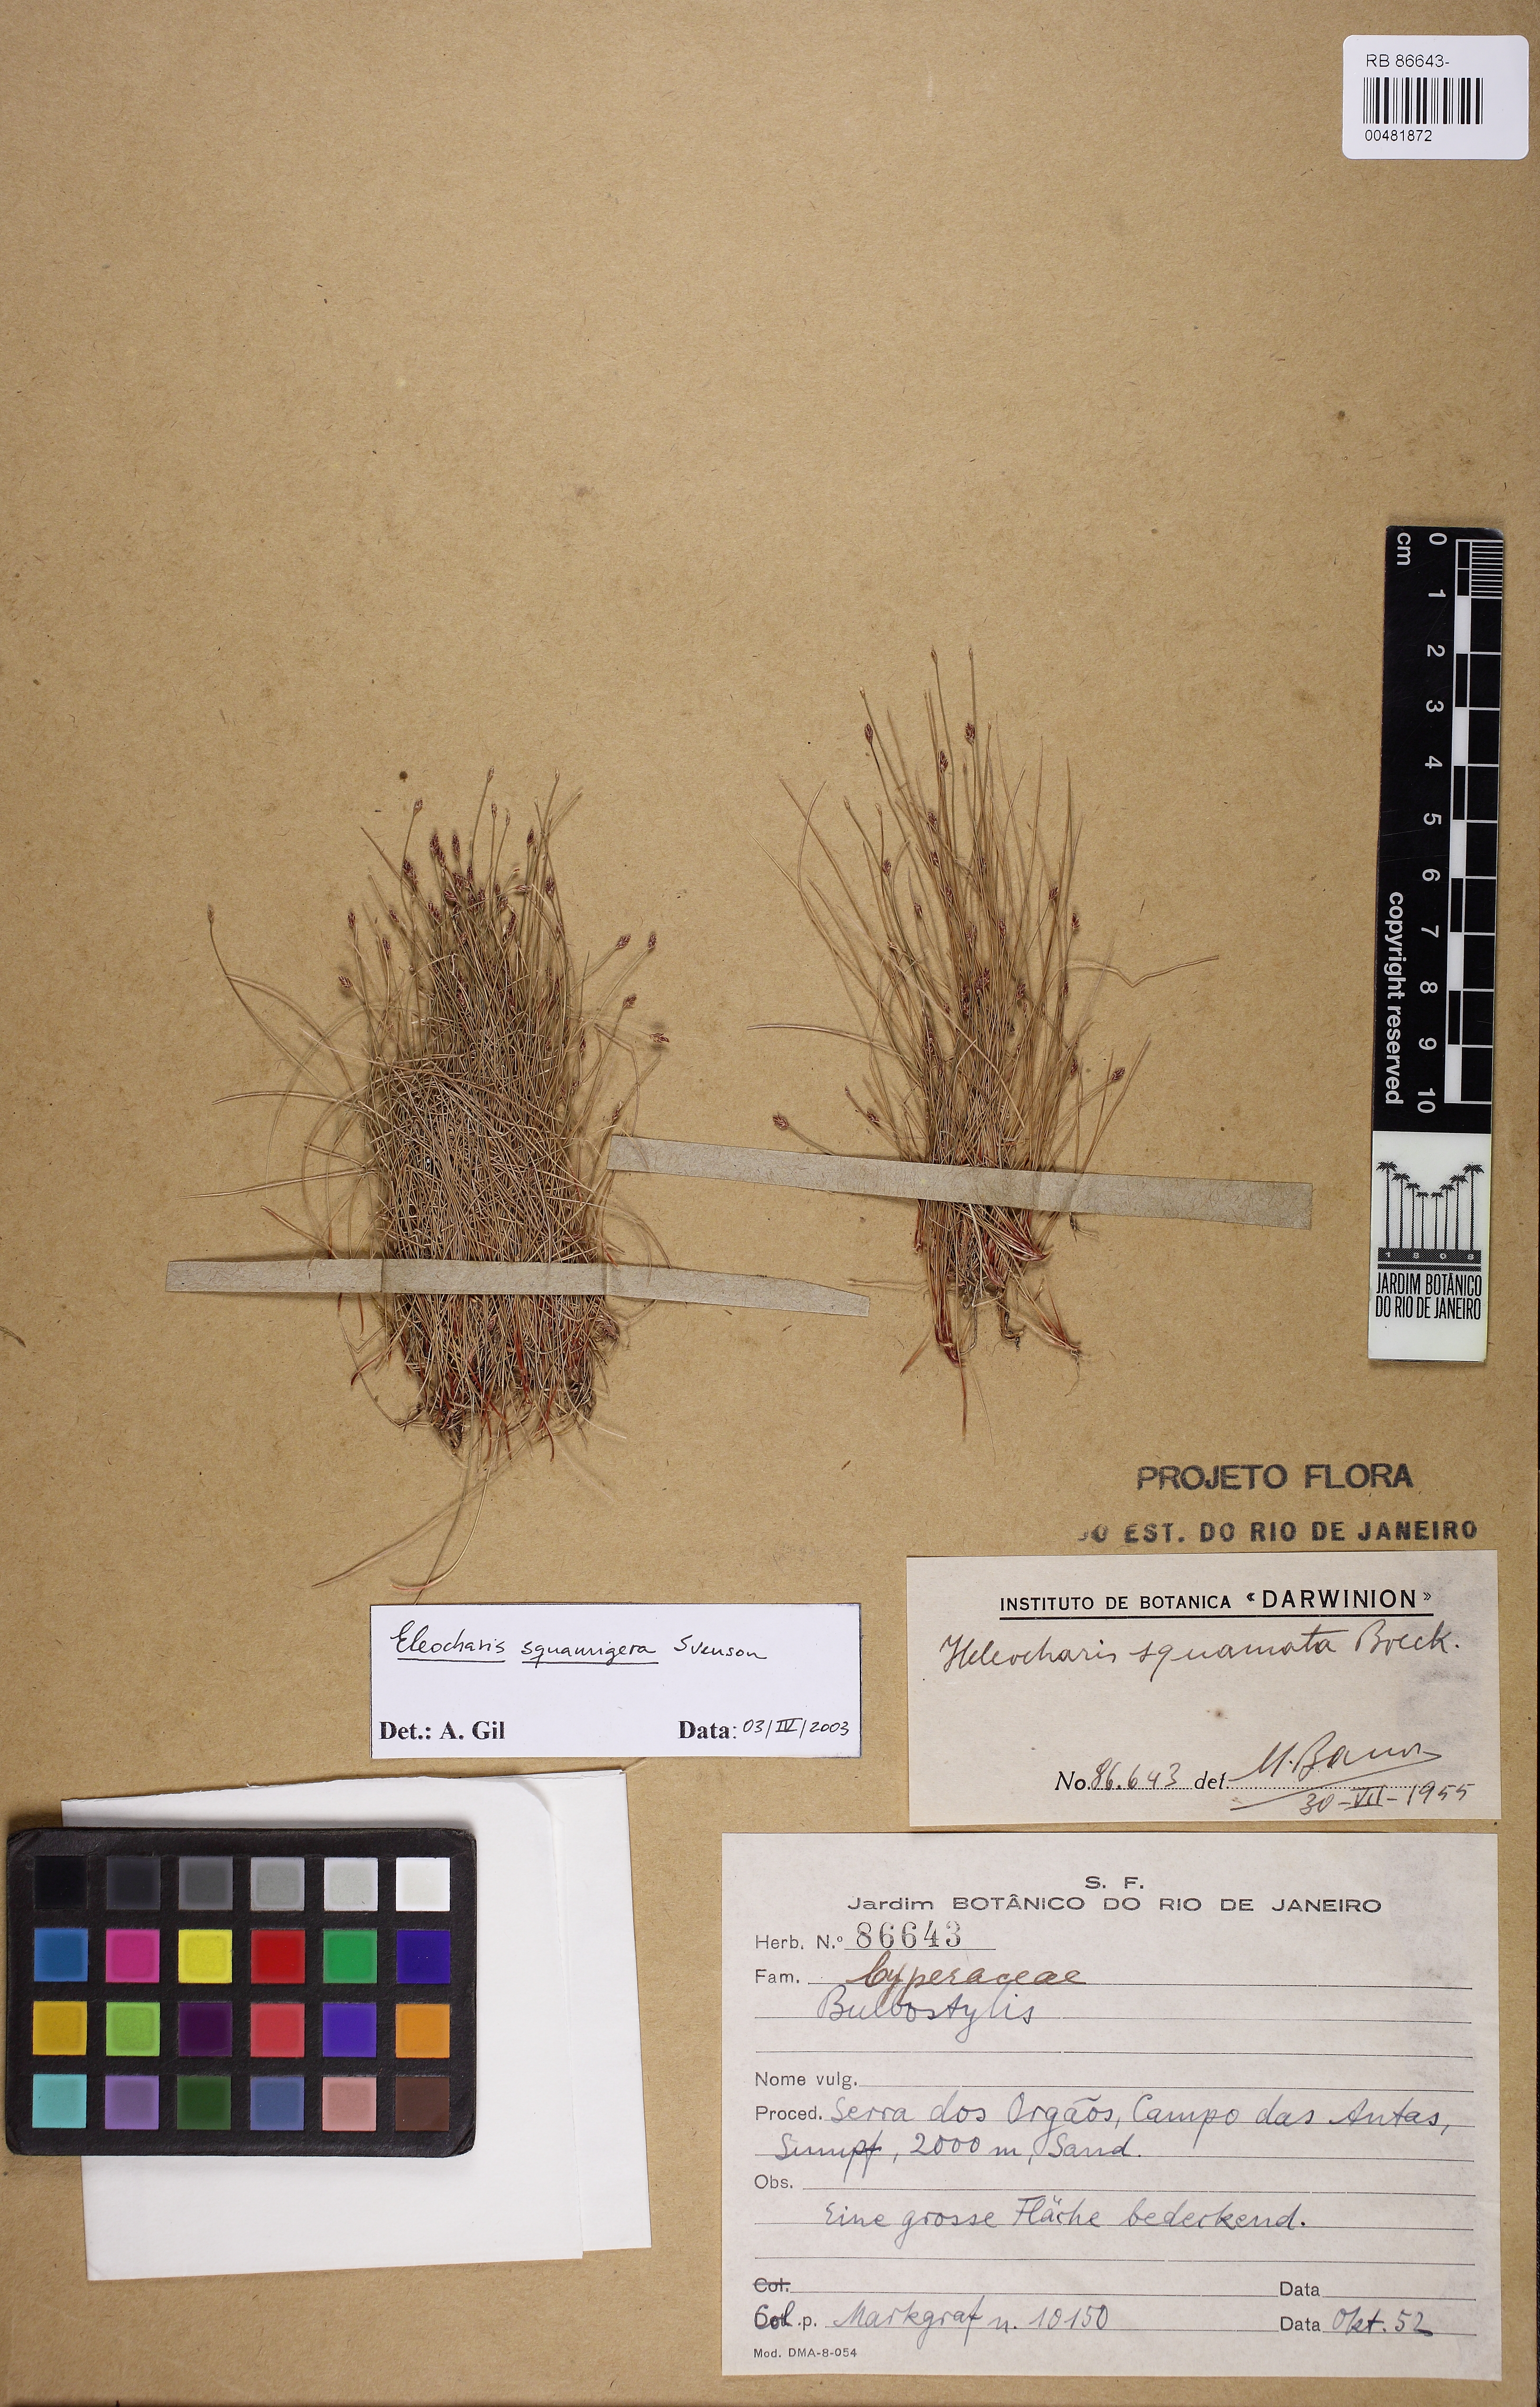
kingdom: Plantae
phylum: Tracheophyta
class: Liliopsida
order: Poales
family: Cyperaceae
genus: Eleocharis
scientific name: Eleocharis squamigera
